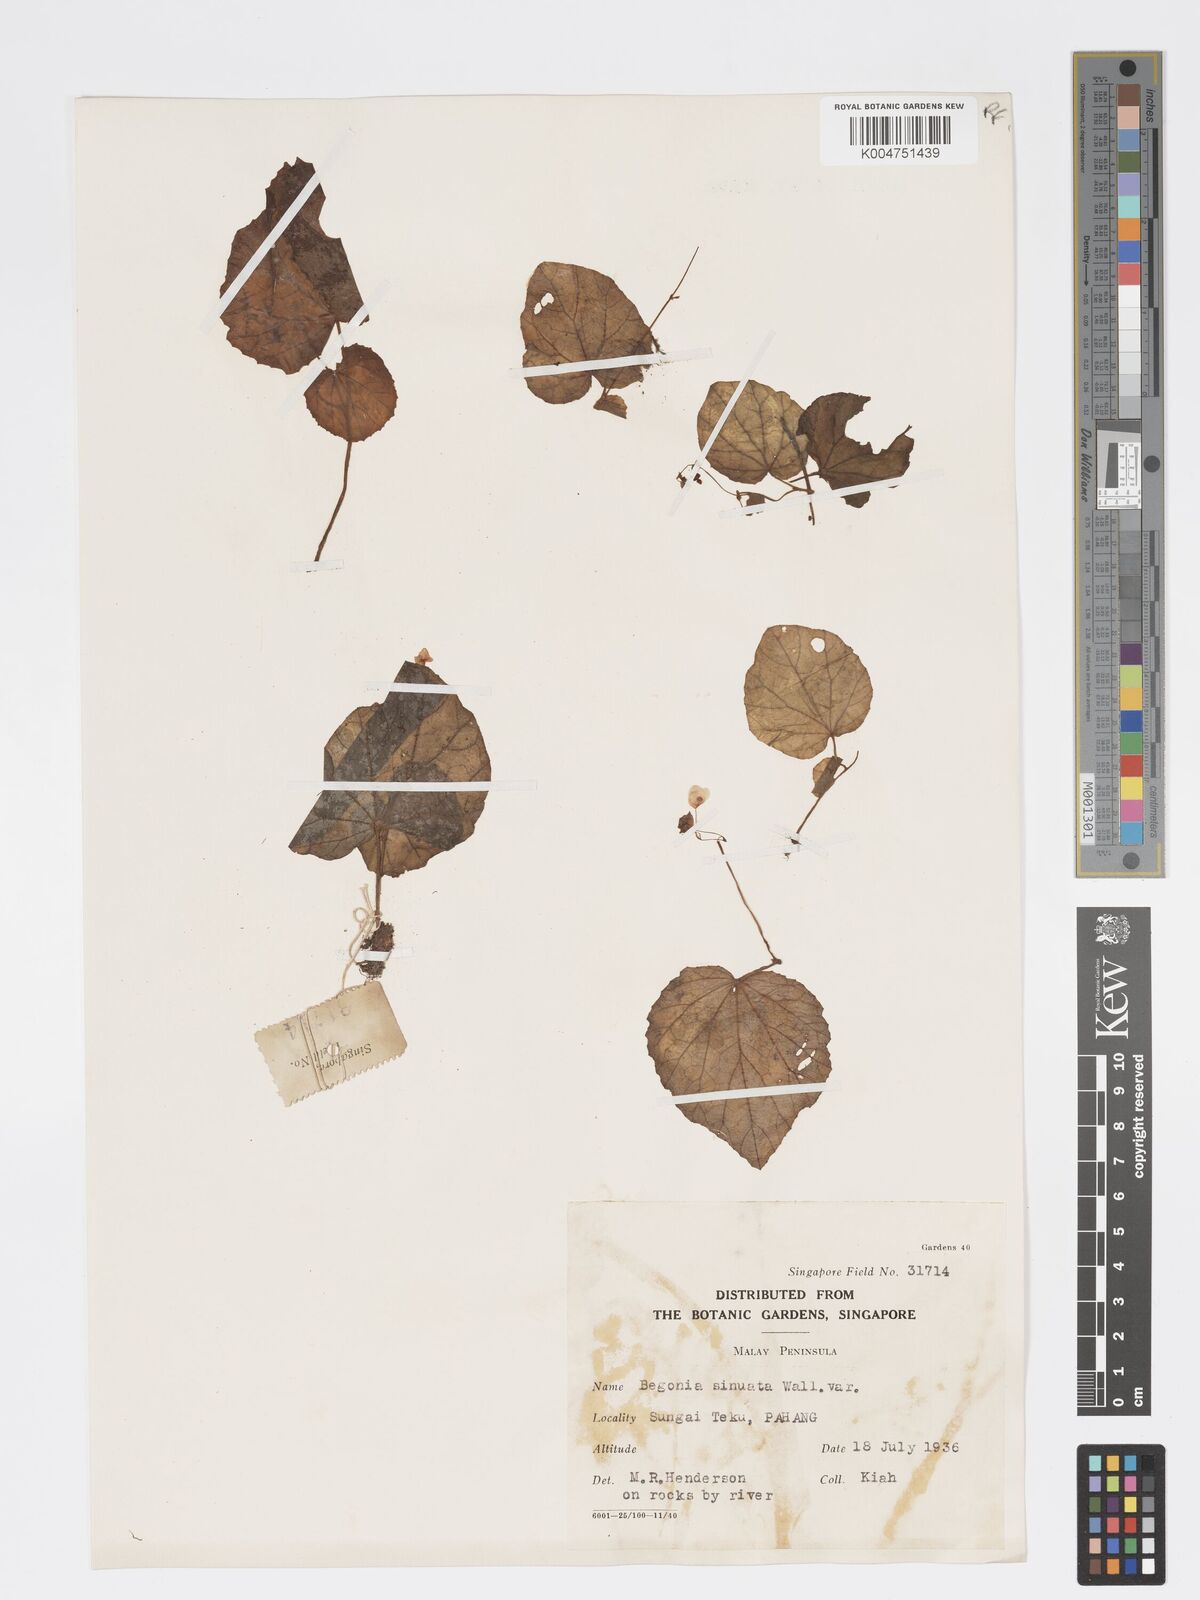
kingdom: Plantae
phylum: Tracheophyta
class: Magnoliopsida
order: Cucurbitales
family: Begoniaceae
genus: Begonia
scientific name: Begonia
